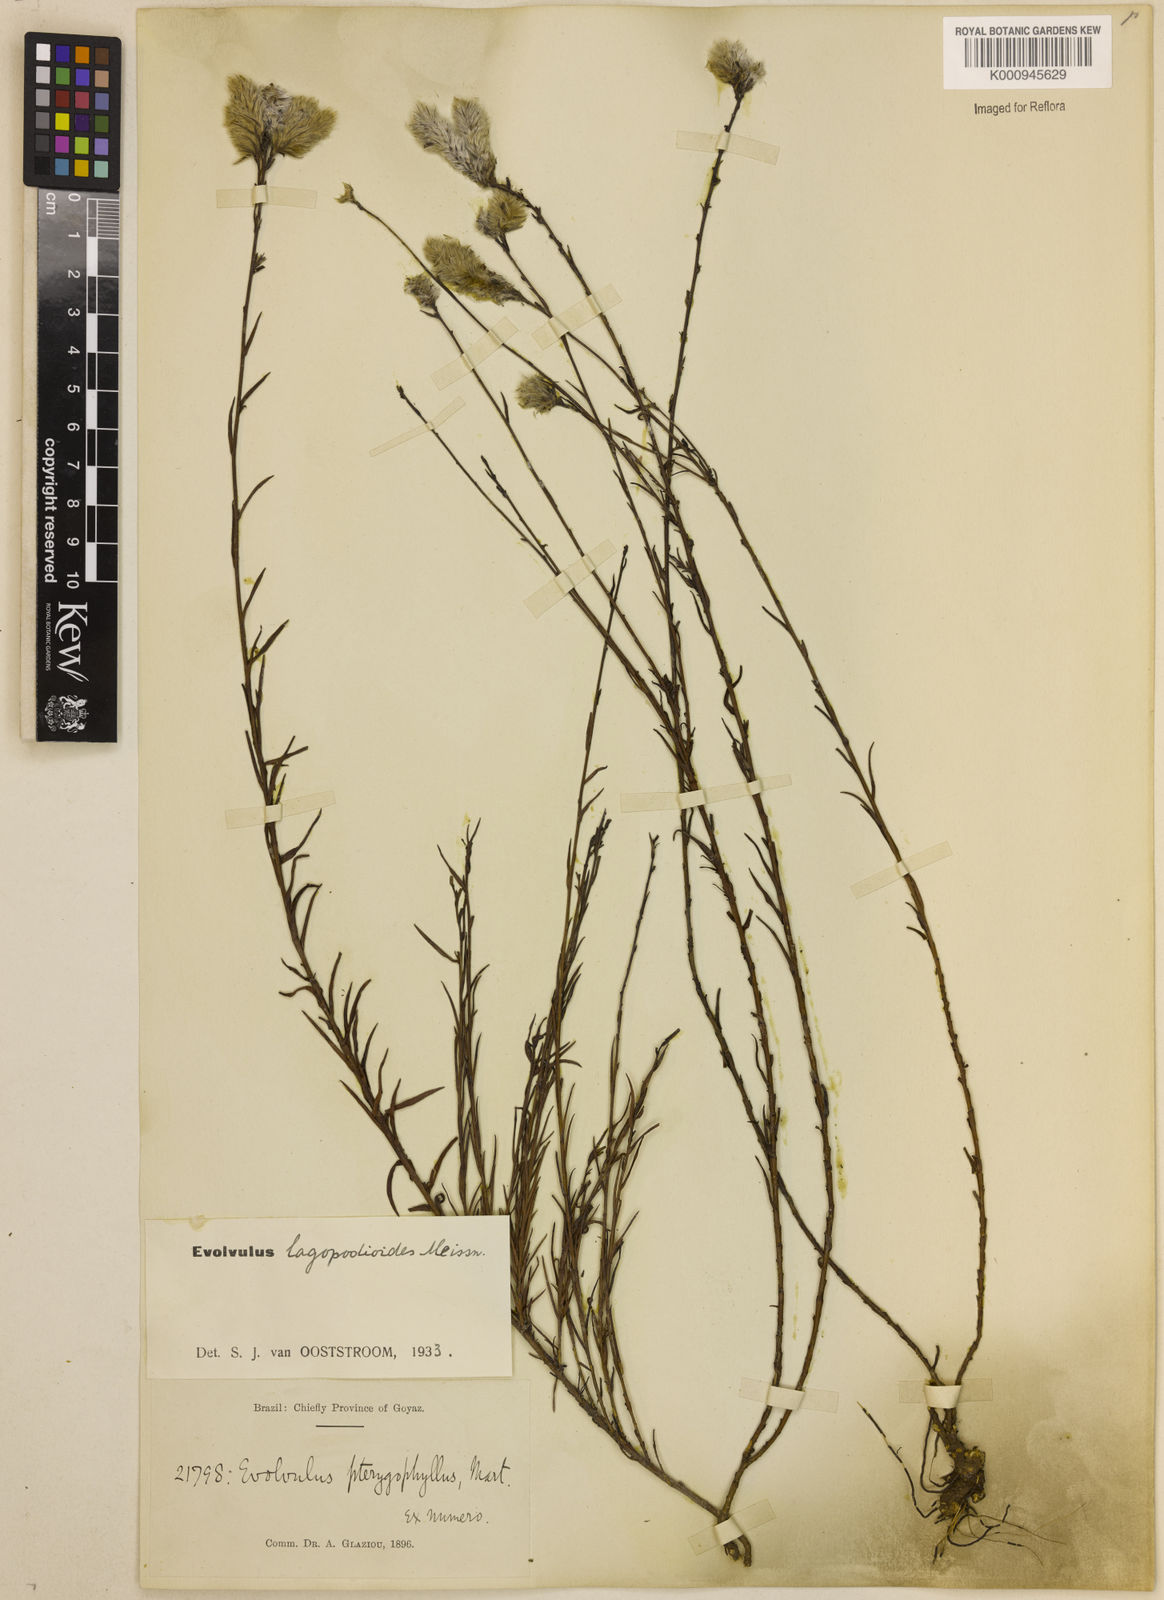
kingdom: Plantae
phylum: Tracheophyta
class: Magnoliopsida
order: Solanales
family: Convolvulaceae
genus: Evolvulus
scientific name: Evolvulus lagopodioides
